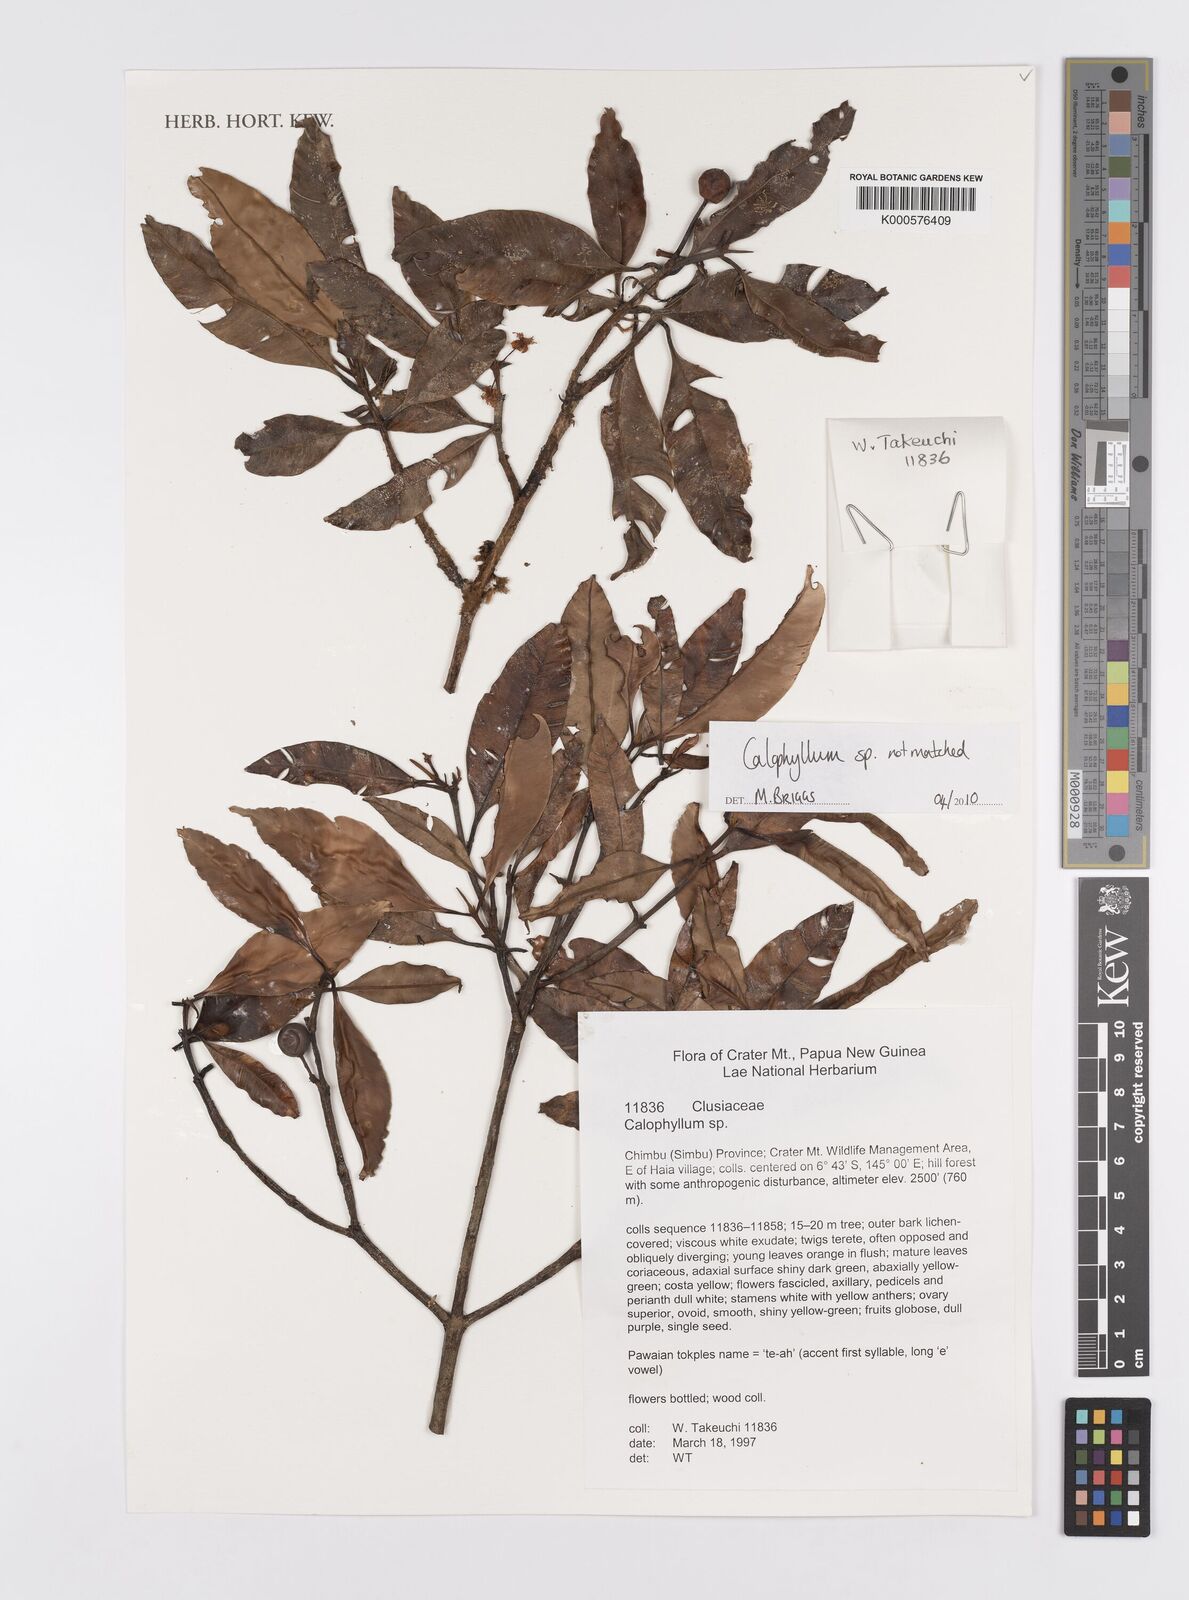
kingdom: Plantae
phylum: Tracheophyta
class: Magnoliopsida
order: Malpighiales
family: Calophyllaceae
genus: Calophyllum
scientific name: Calophyllum
